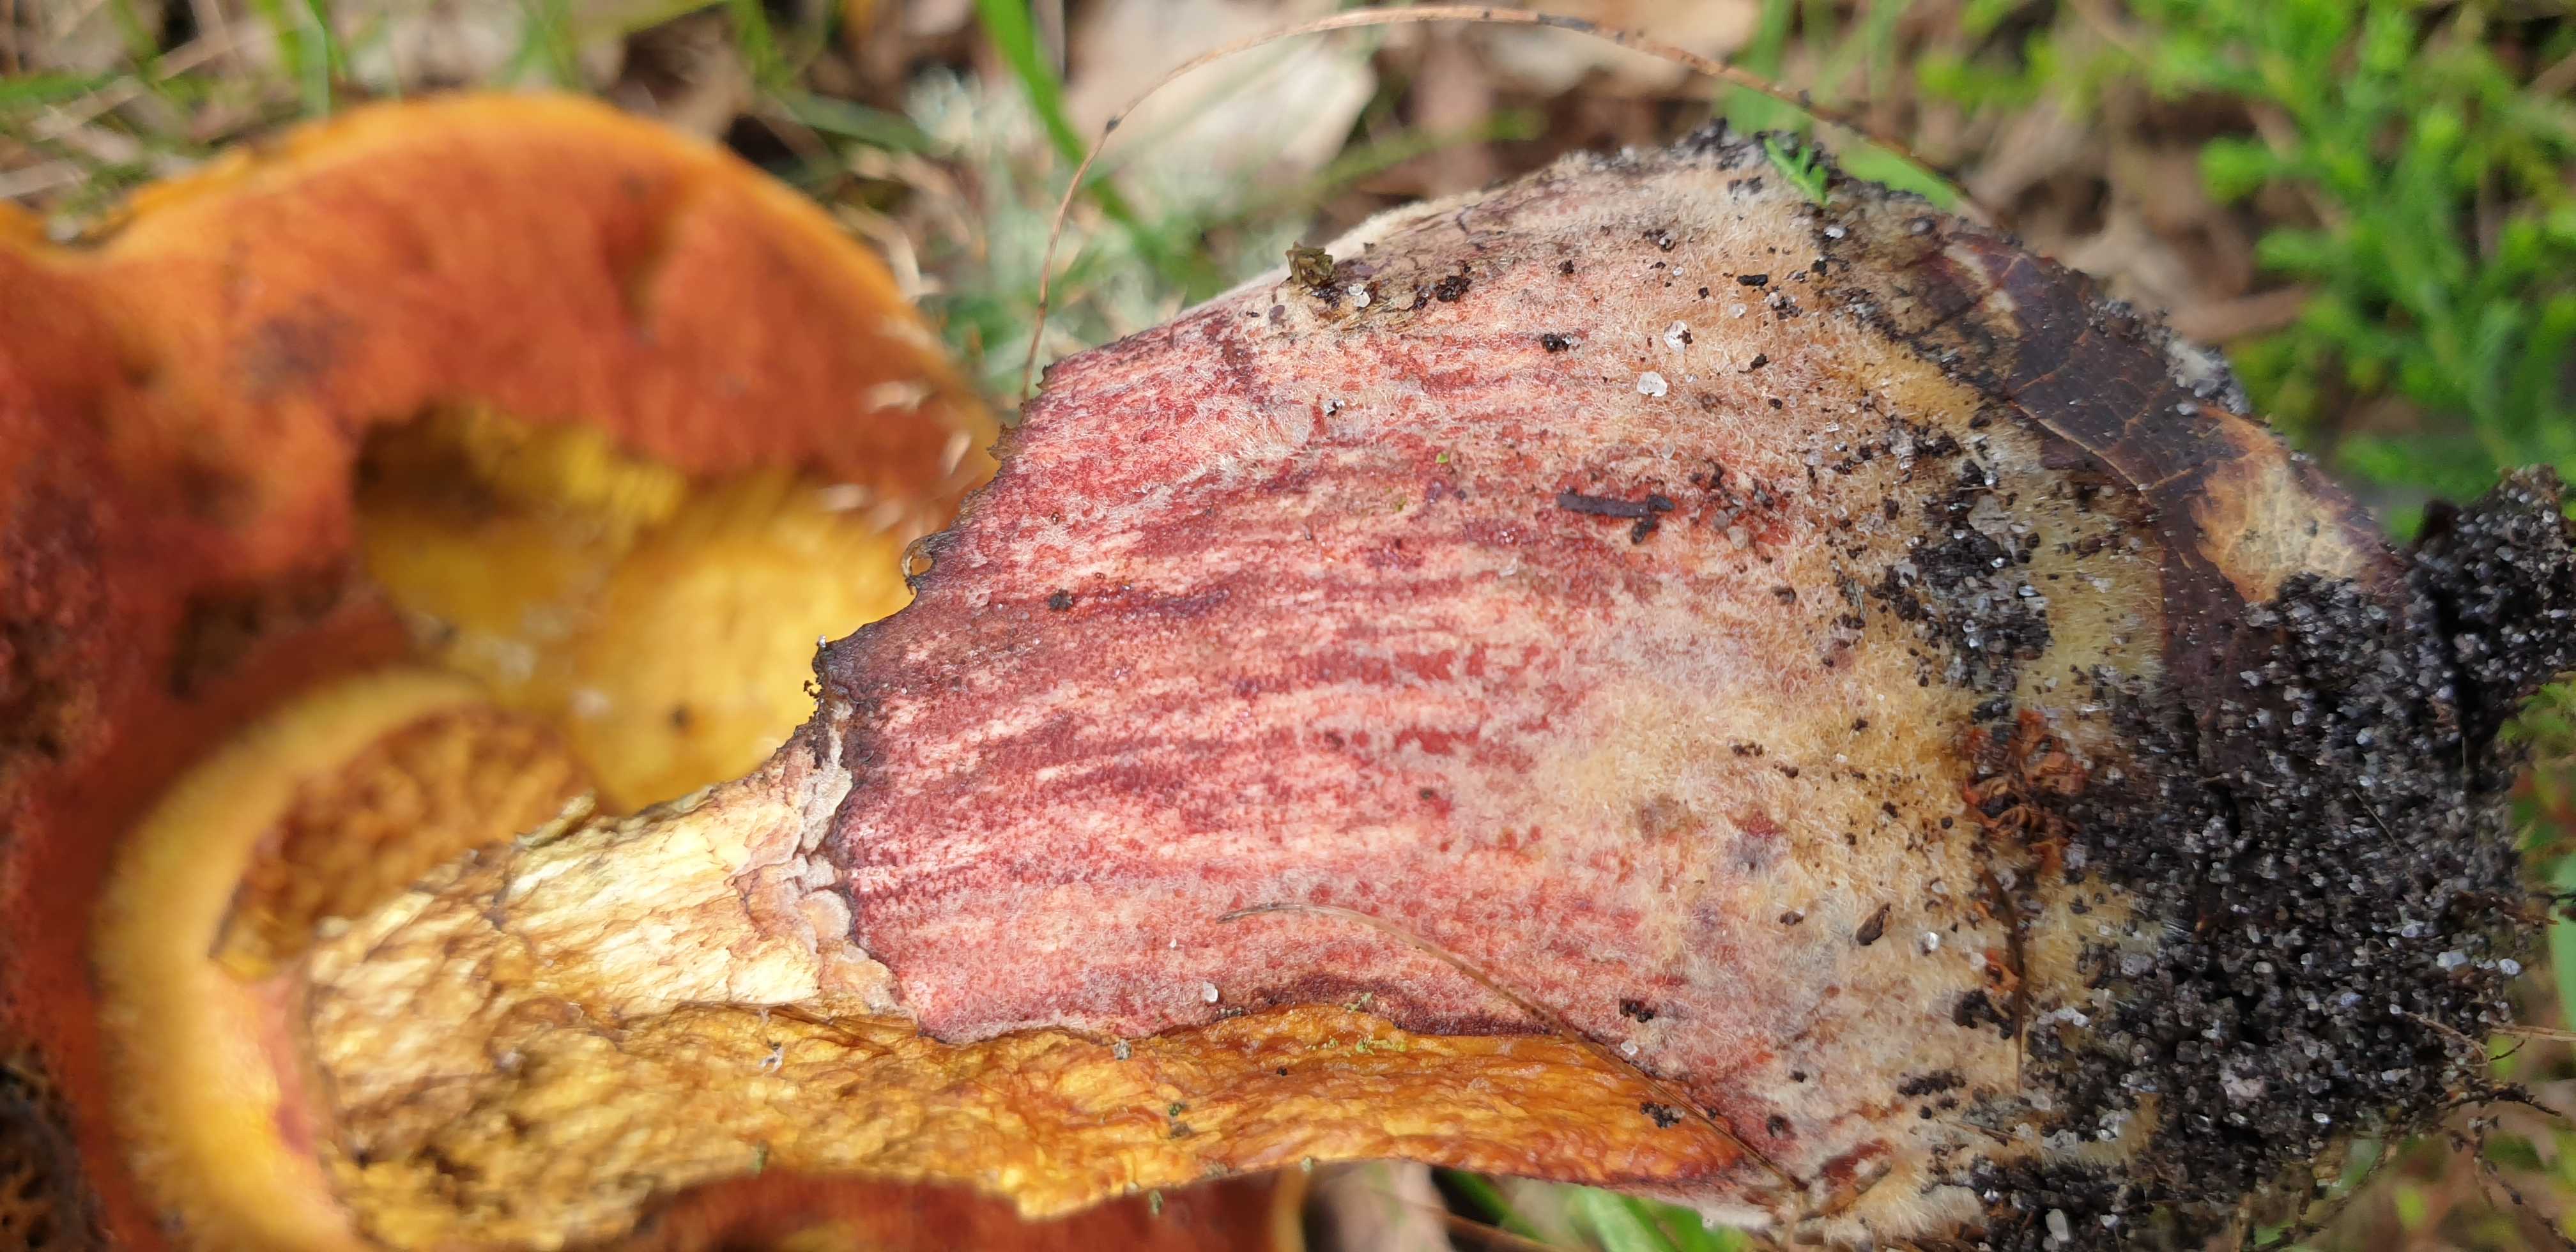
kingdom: Fungi
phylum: Basidiomycota
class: Agaricomycetes
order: Boletales
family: Boletaceae
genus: Neoboletus
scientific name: Neoboletus erythropus
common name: punktstokket indigorørhat
